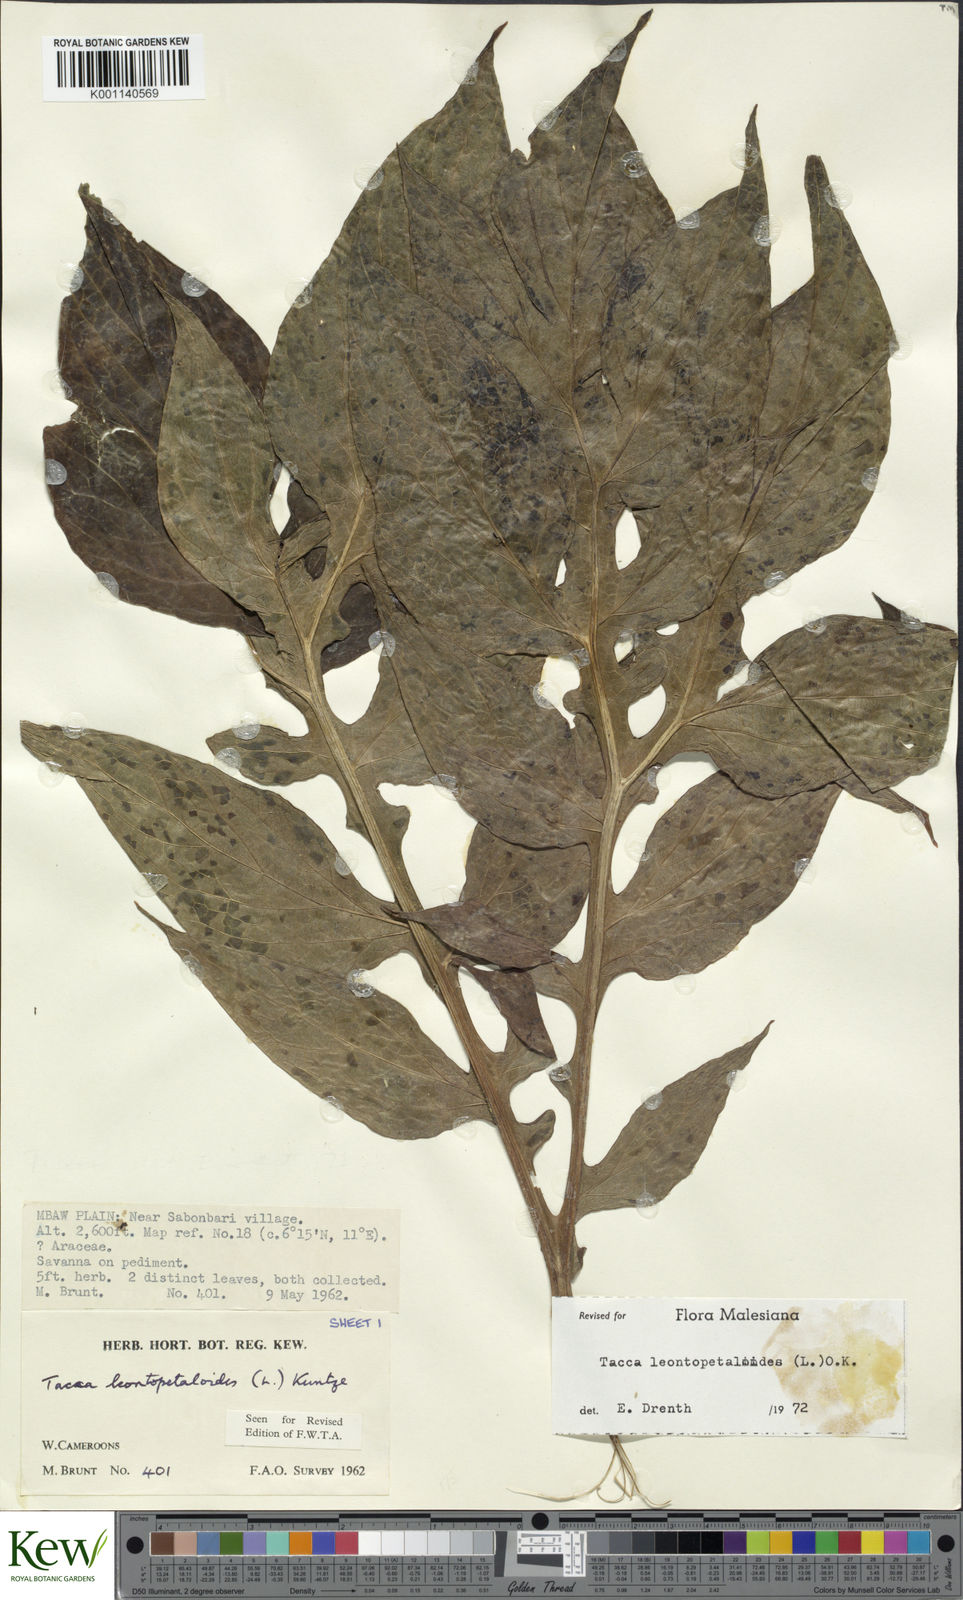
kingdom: Plantae
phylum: Tracheophyta
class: Liliopsida
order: Dioscoreales
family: Dioscoreaceae
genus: Tacca
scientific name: Tacca leontopetaloides
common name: Arrowroot
